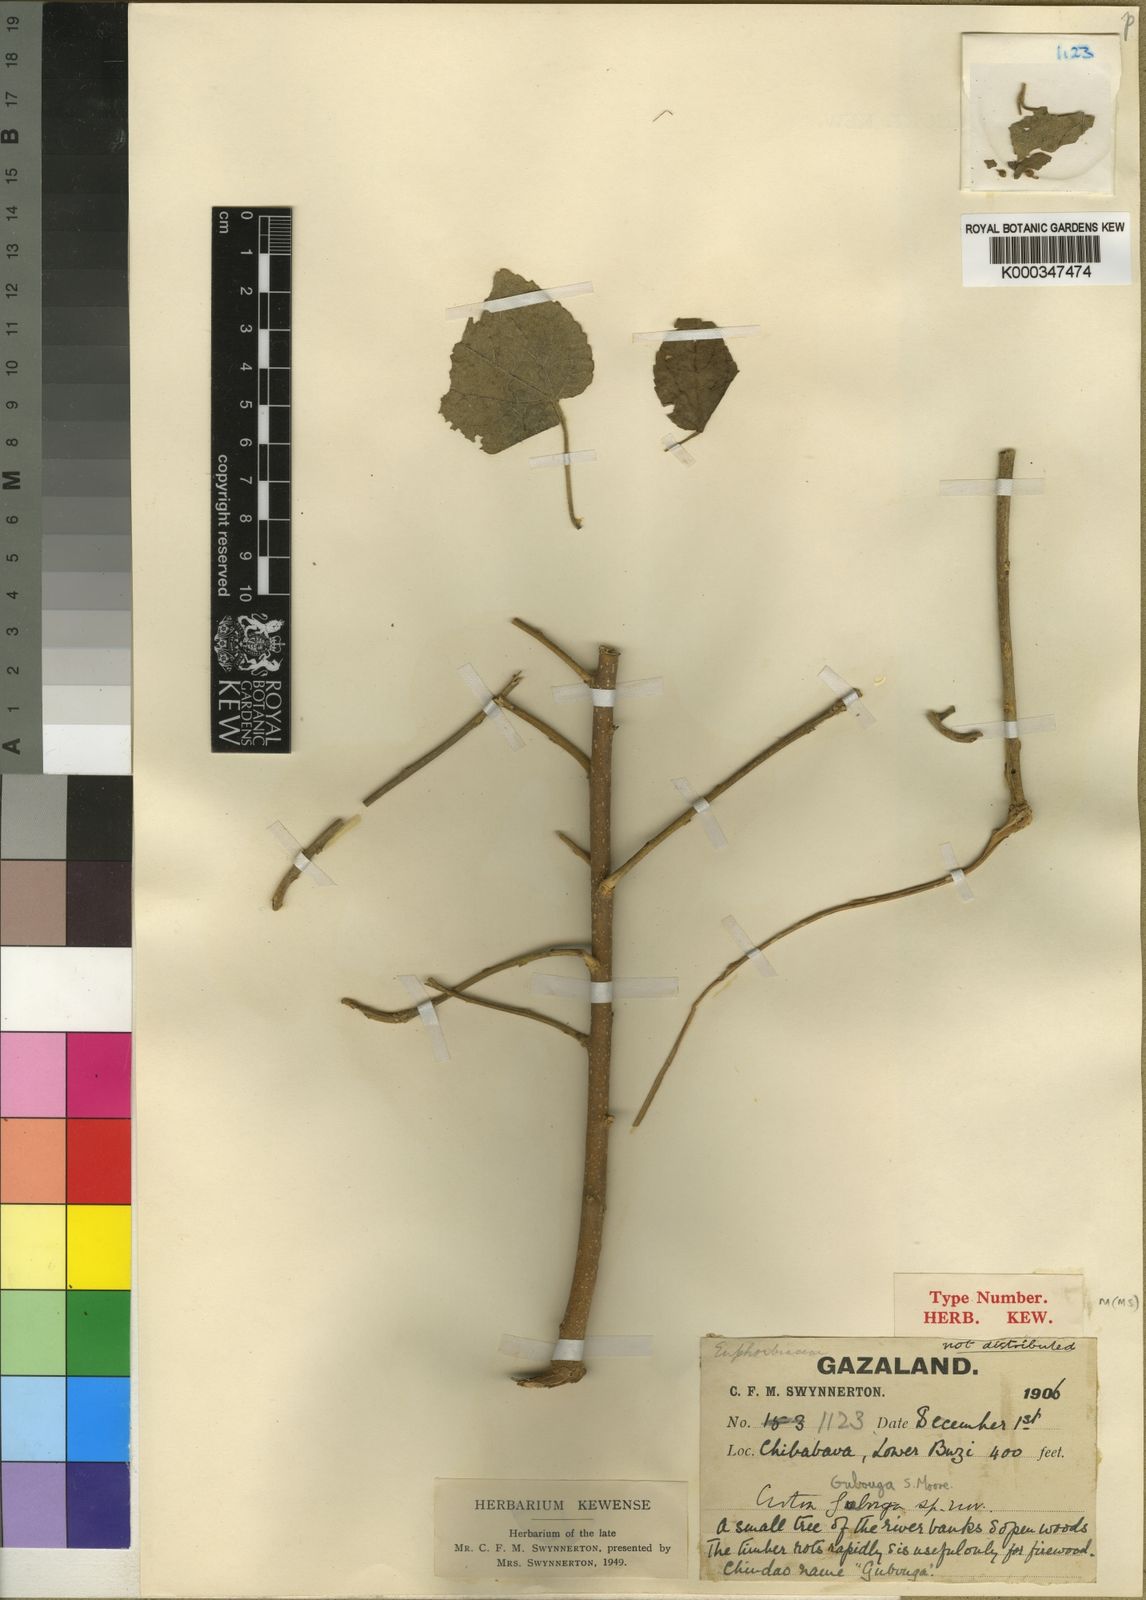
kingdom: Plantae
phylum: Tracheophyta
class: Magnoliopsida
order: Malpighiales
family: Euphorbiaceae
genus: Croton
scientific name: Croton
